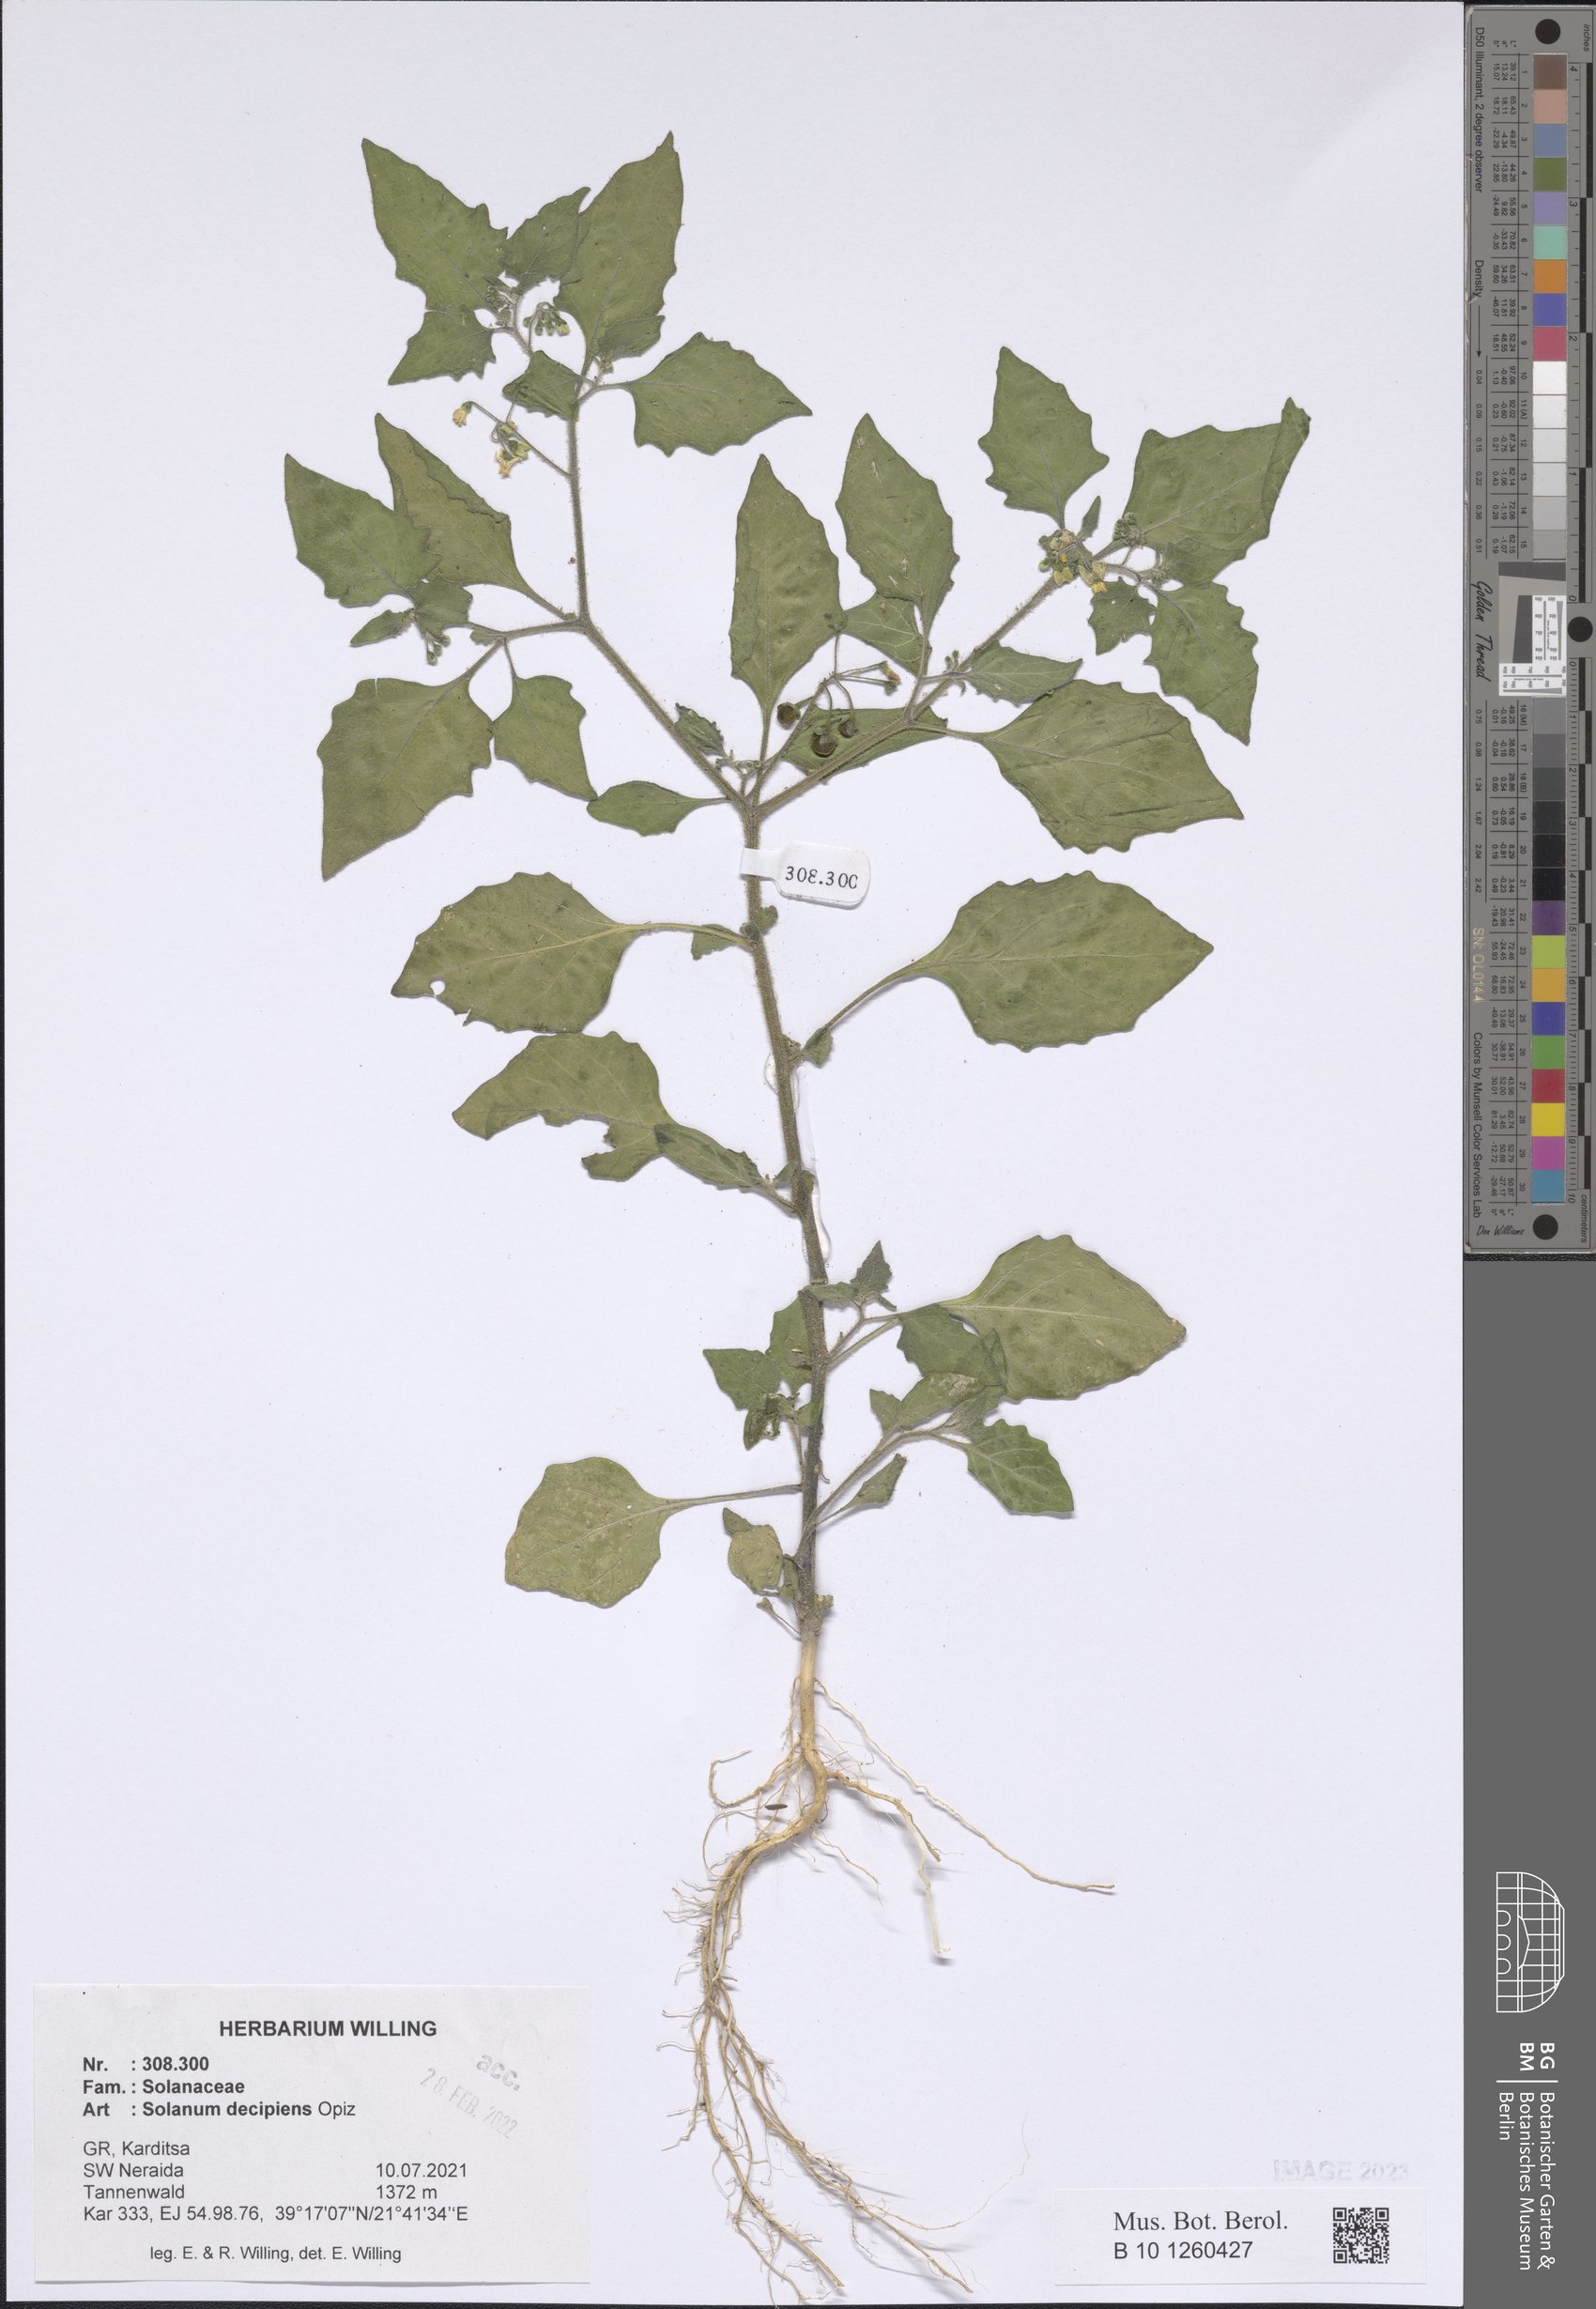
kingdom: Plantae
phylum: Tracheophyta
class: Magnoliopsida
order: Solanales
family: Solanaceae
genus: Solanum
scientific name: Solanum decipiens
